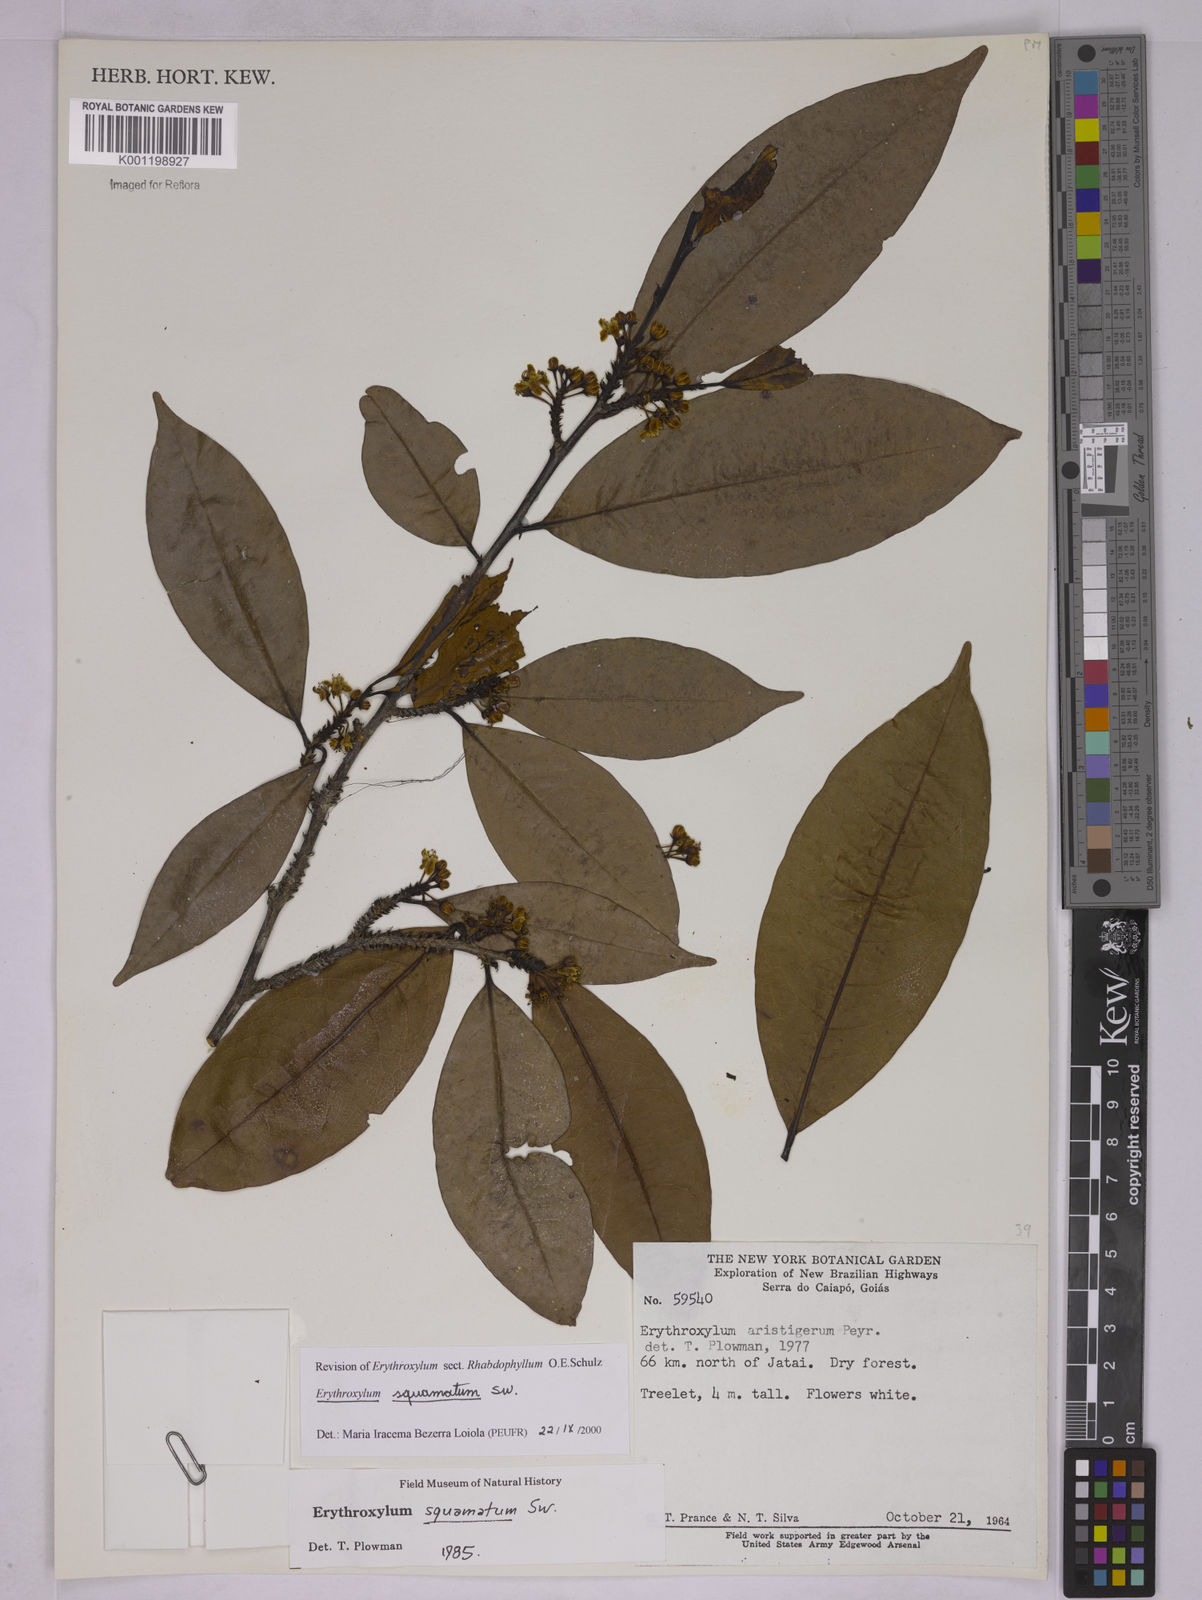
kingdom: Plantae
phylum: Tracheophyta
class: Magnoliopsida
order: Malpighiales
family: Erythroxylaceae
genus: Erythroxylum
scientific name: Erythroxylum squamatum
